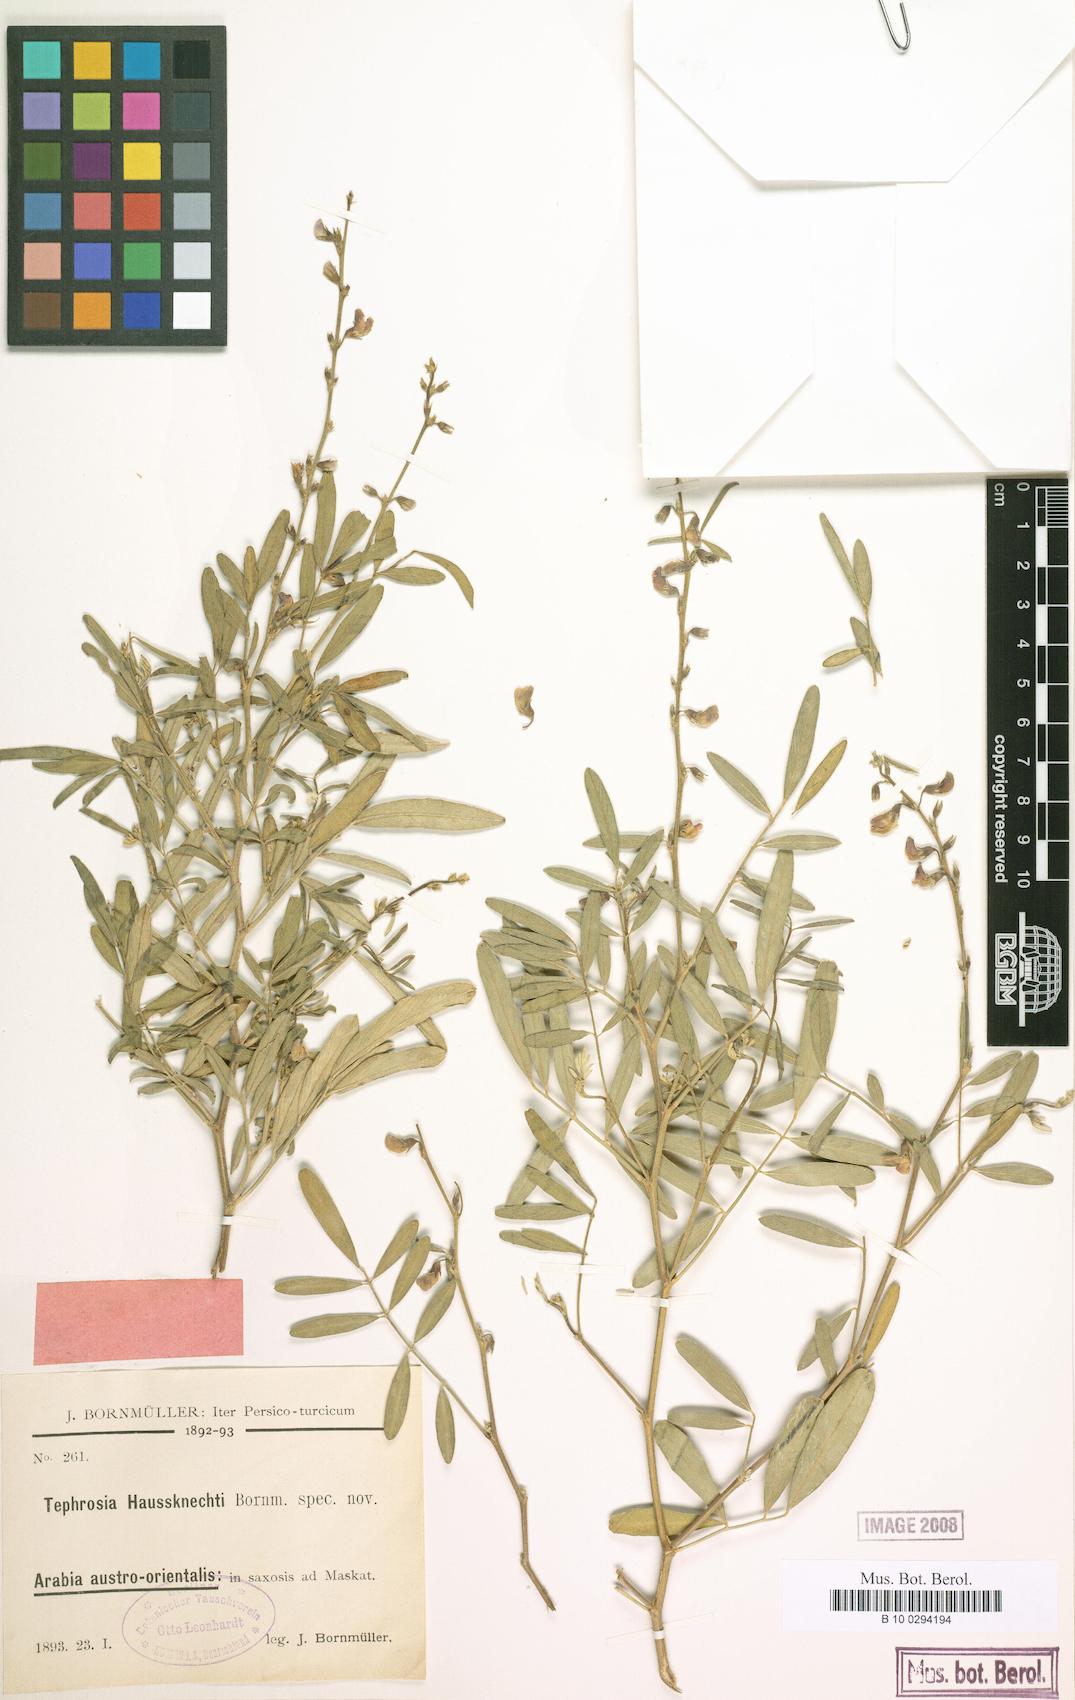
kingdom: Plantae
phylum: Tracheophyta
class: Magnoliopsida
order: Fabales
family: Fabaceae
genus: Tephrosia
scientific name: Tephrosia haussknechtii
